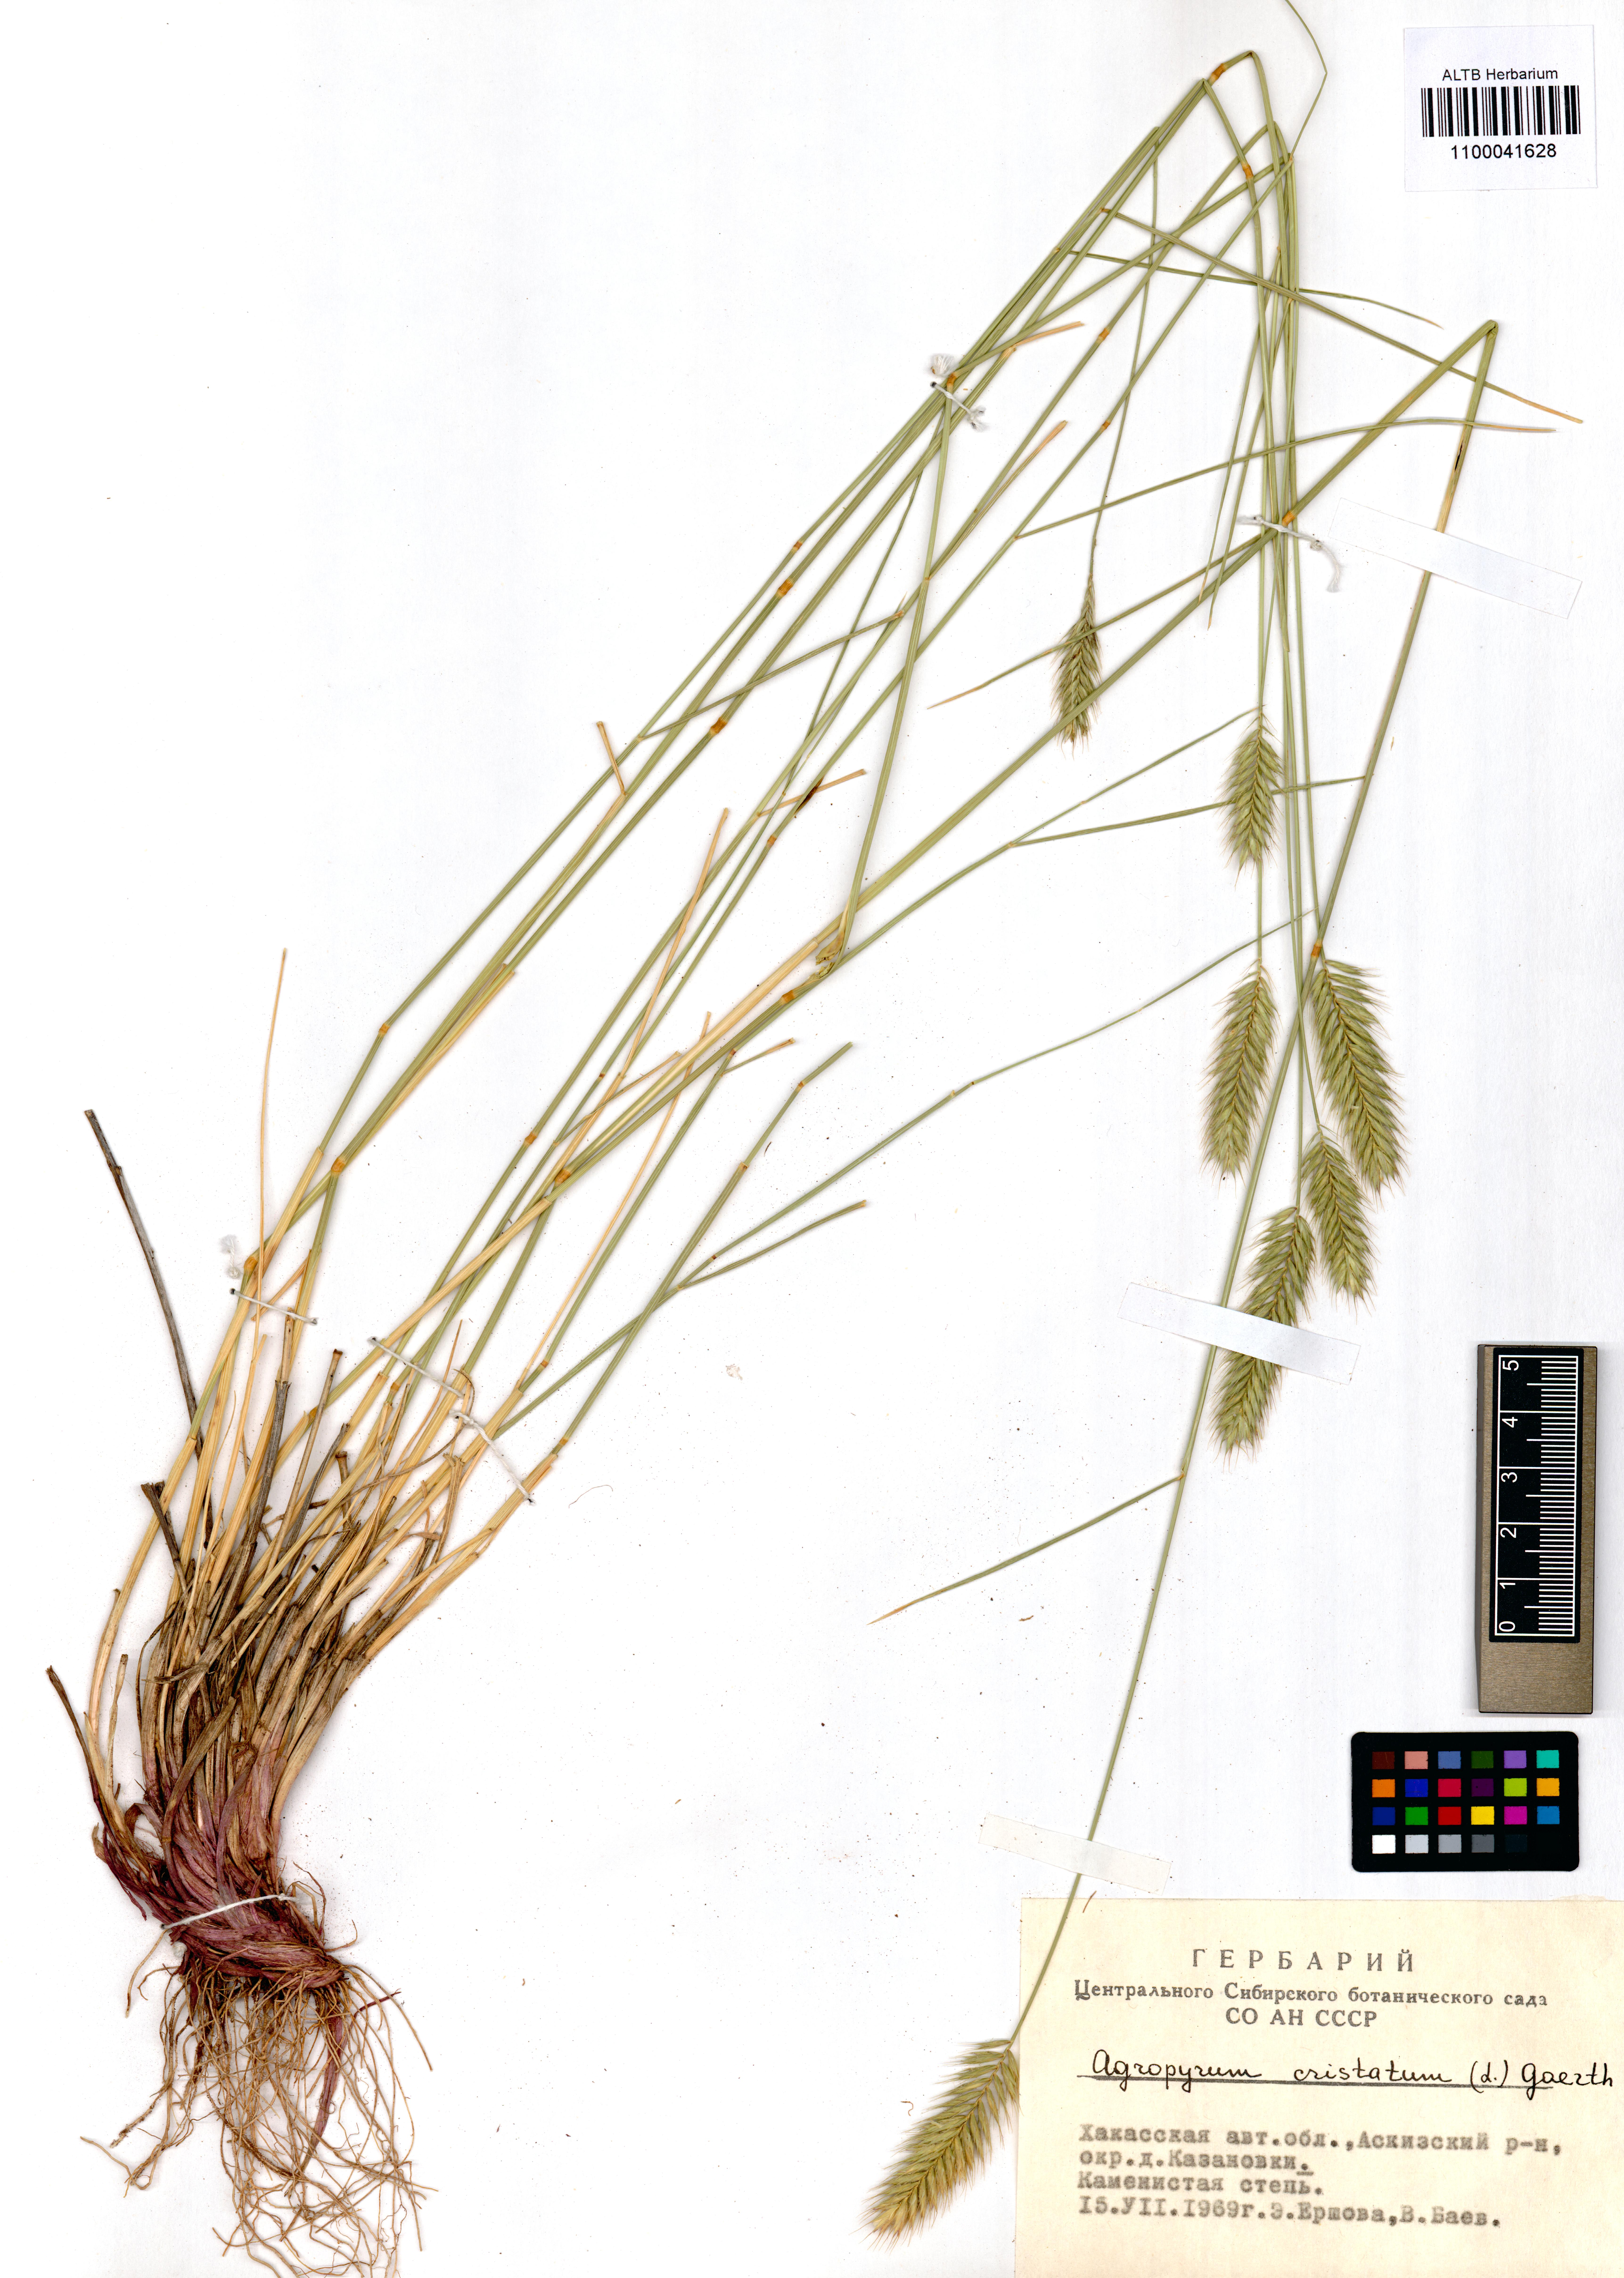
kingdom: Plantae
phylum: Tracheophyta
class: Liliopsida
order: Poales
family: Poaceae
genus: Agropyron
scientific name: Agropyron cristatum
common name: Crested wheatgrass
